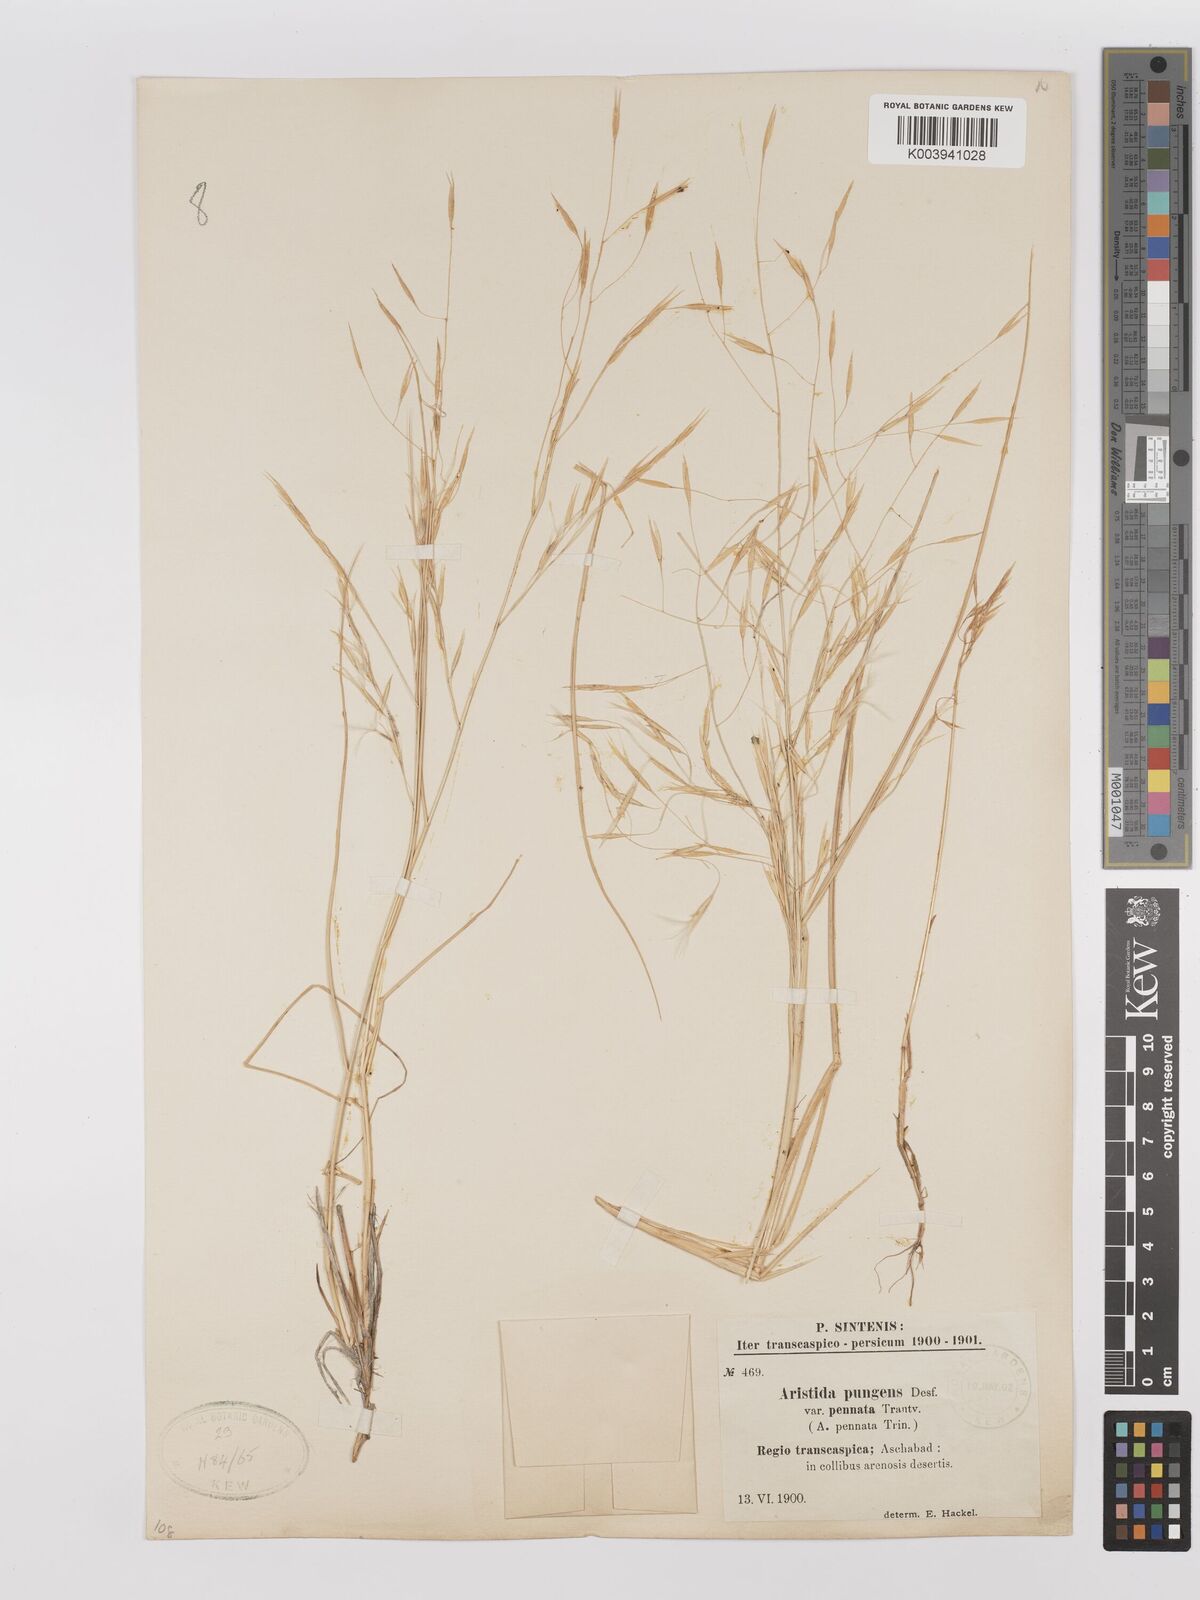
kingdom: Plantae
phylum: Tracheophyta
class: Liliopsida
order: Poales
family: Poaceae
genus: Stipagrostis
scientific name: Stipagrostis pungens
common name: Three-awn grass
